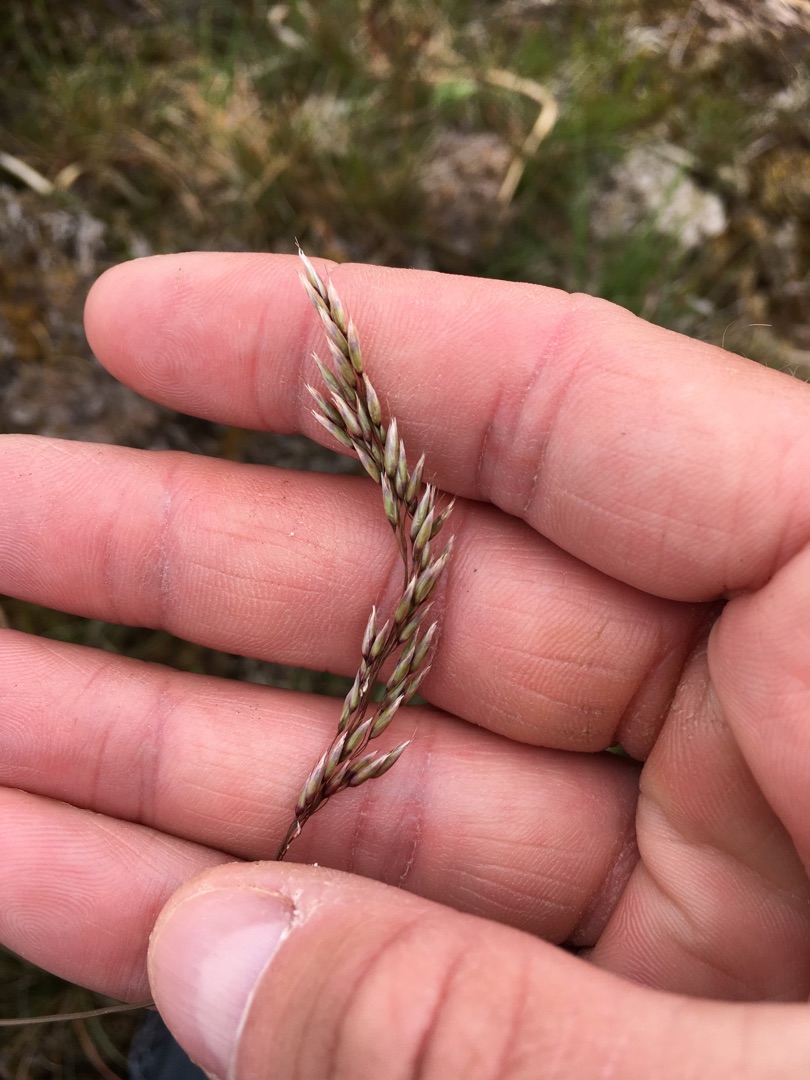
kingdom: Plantae
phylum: Tracheophyta
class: Liliopsida
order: Poales
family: Poaceae
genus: Avenella
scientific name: Avenella flexuosa
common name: Bølget bunke
